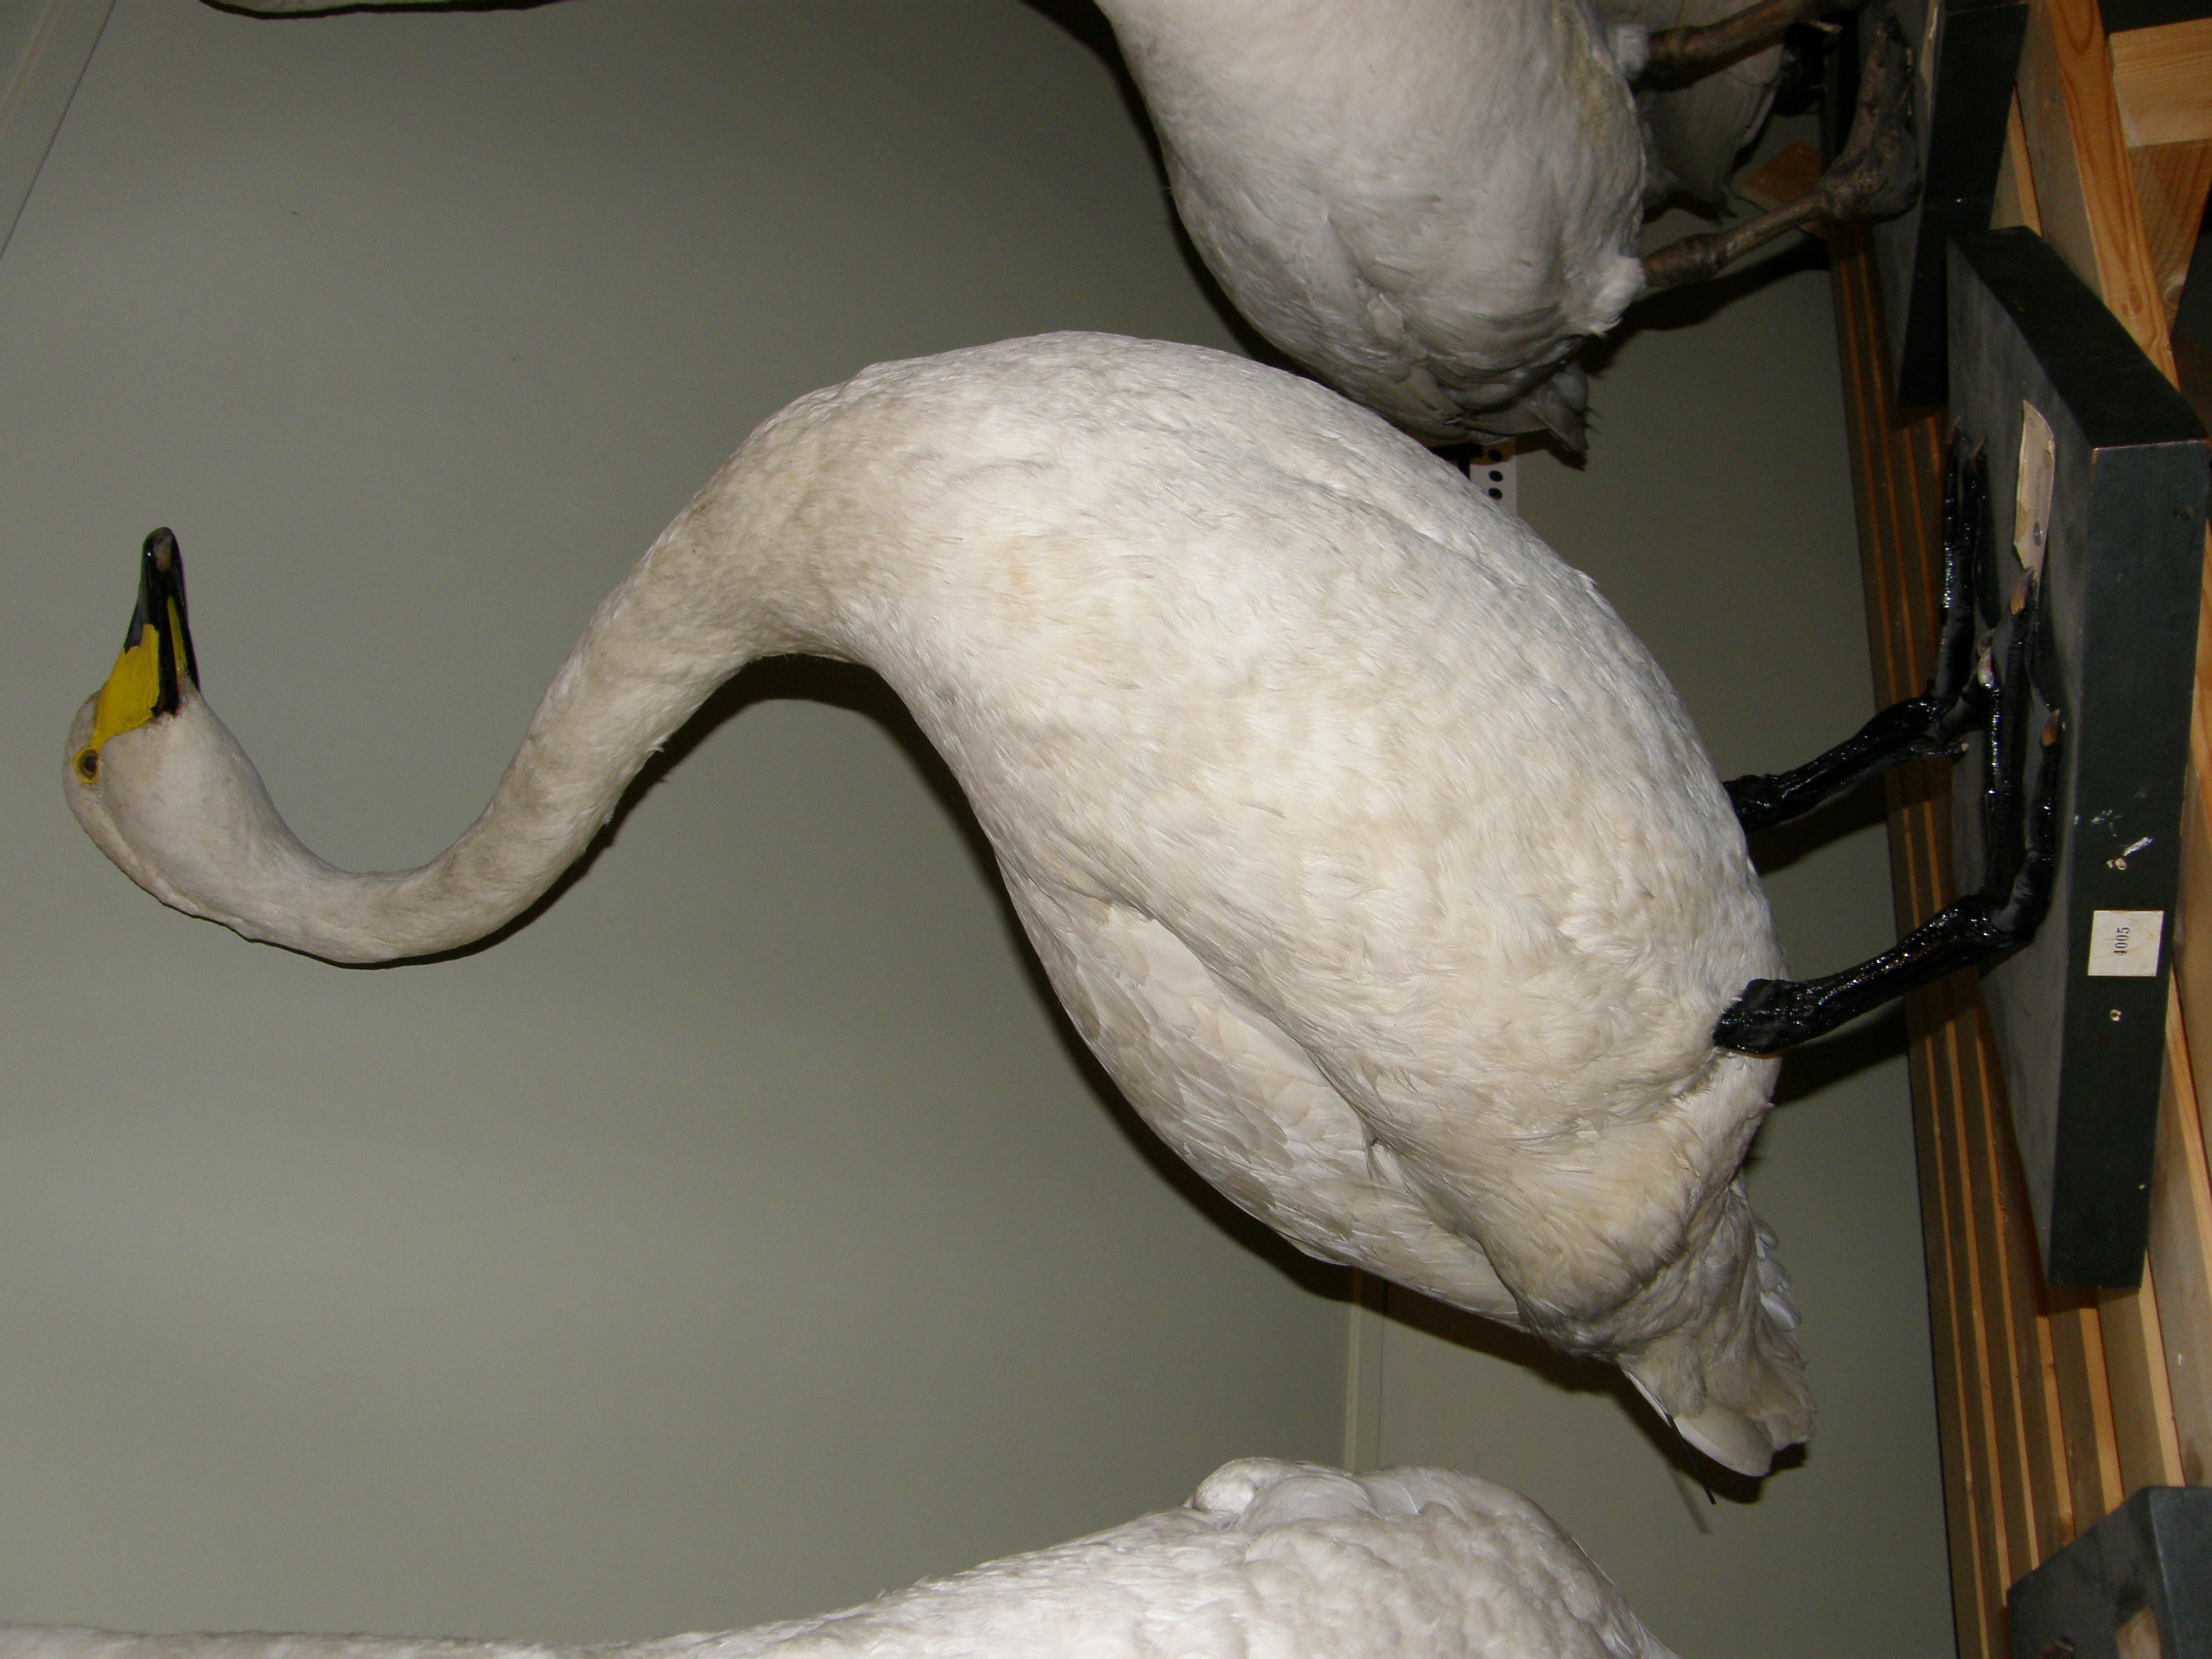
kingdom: Animalia
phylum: Chordata
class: Aves
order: Anseriformes
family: Anatidae
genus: Cygnus
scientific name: Cygnus cygnus
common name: Whooper swan
